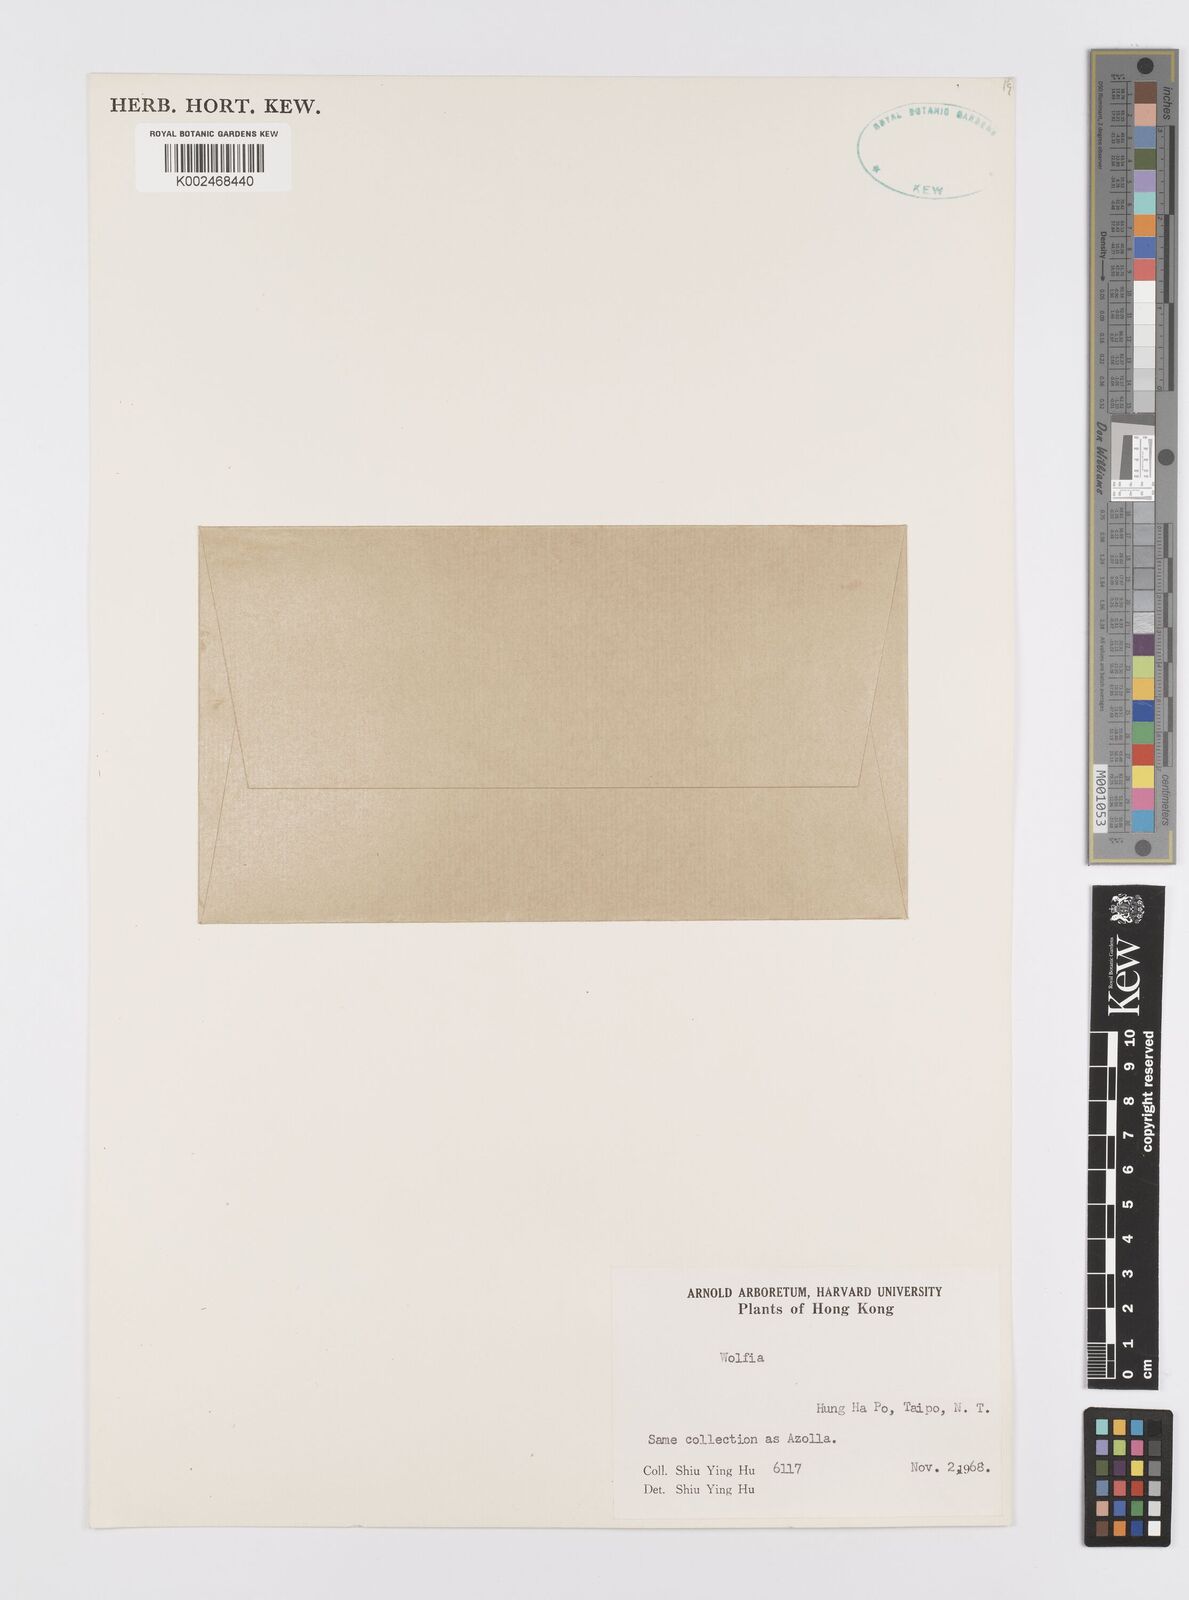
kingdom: Plantae
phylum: Tracheophyta
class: Liliopsida
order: Alismatales
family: Araceae
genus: Wolffia
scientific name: Wolffia
